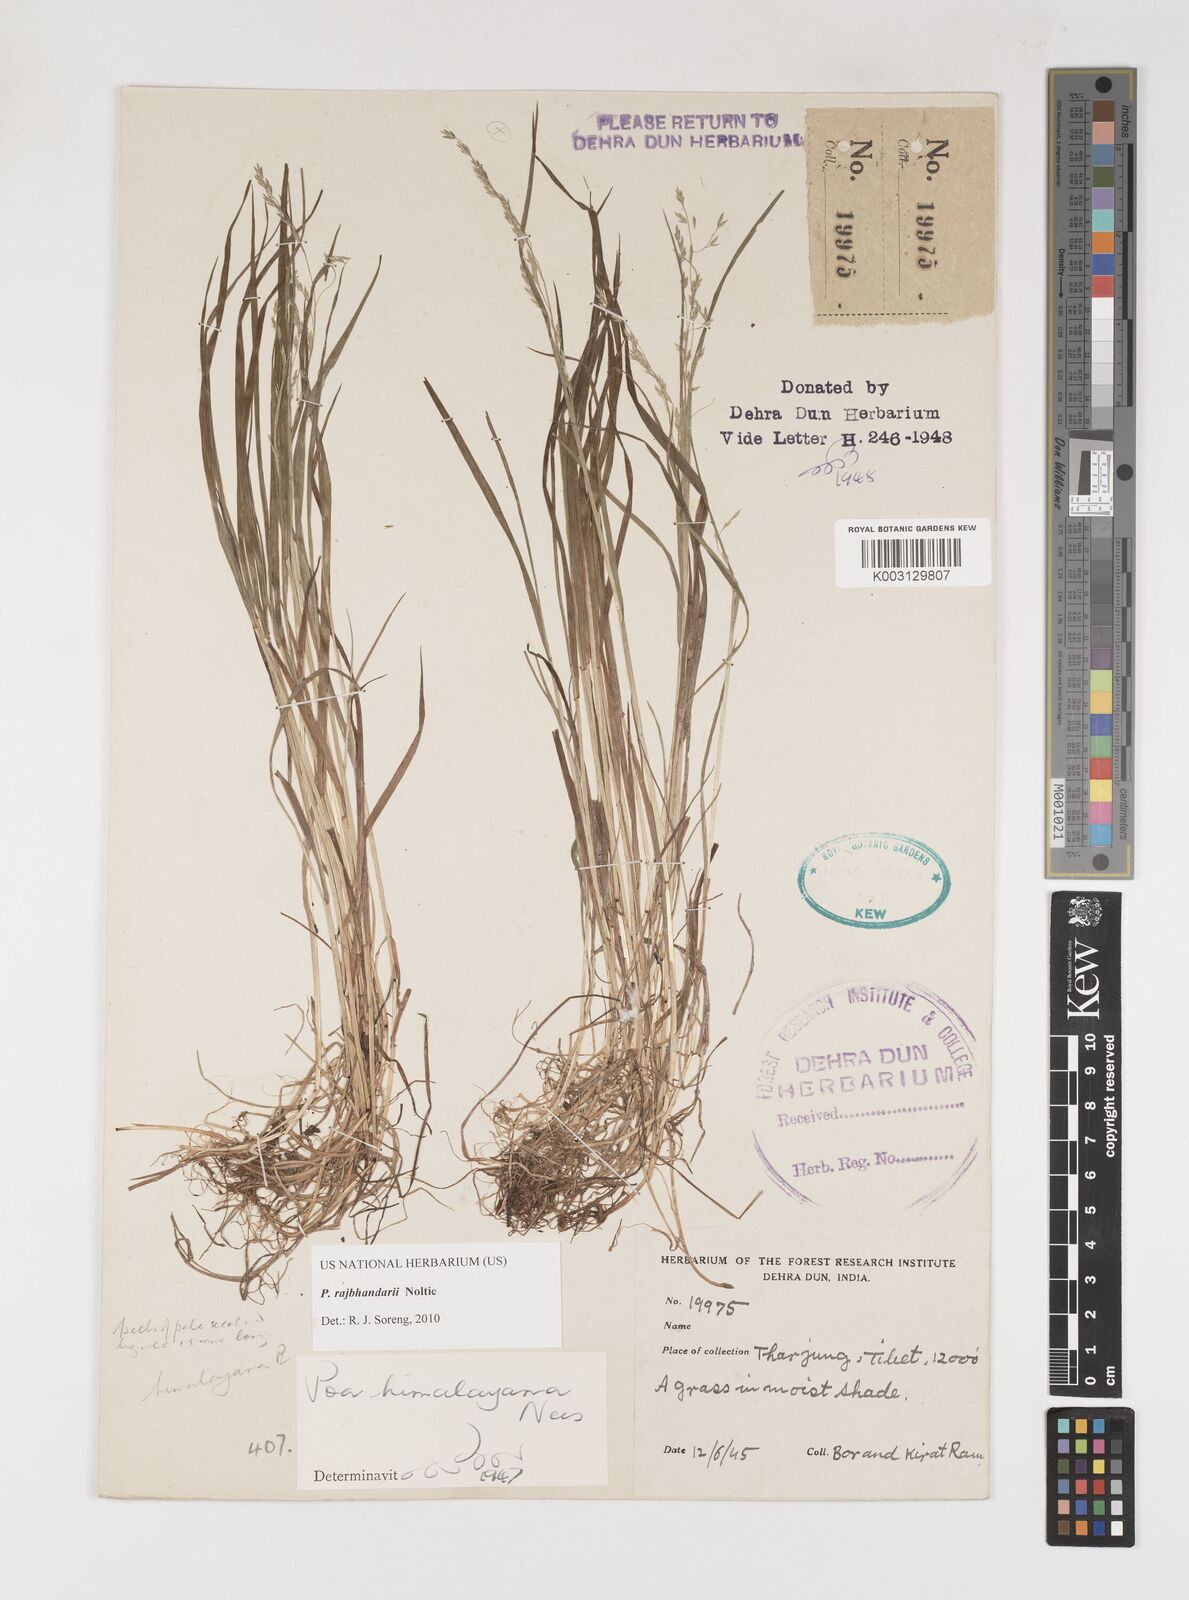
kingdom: Plantae
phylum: Tracheophyta
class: Liliopsida
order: Poales
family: Poaceae
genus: Poa
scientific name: Poa rajbhandarii
